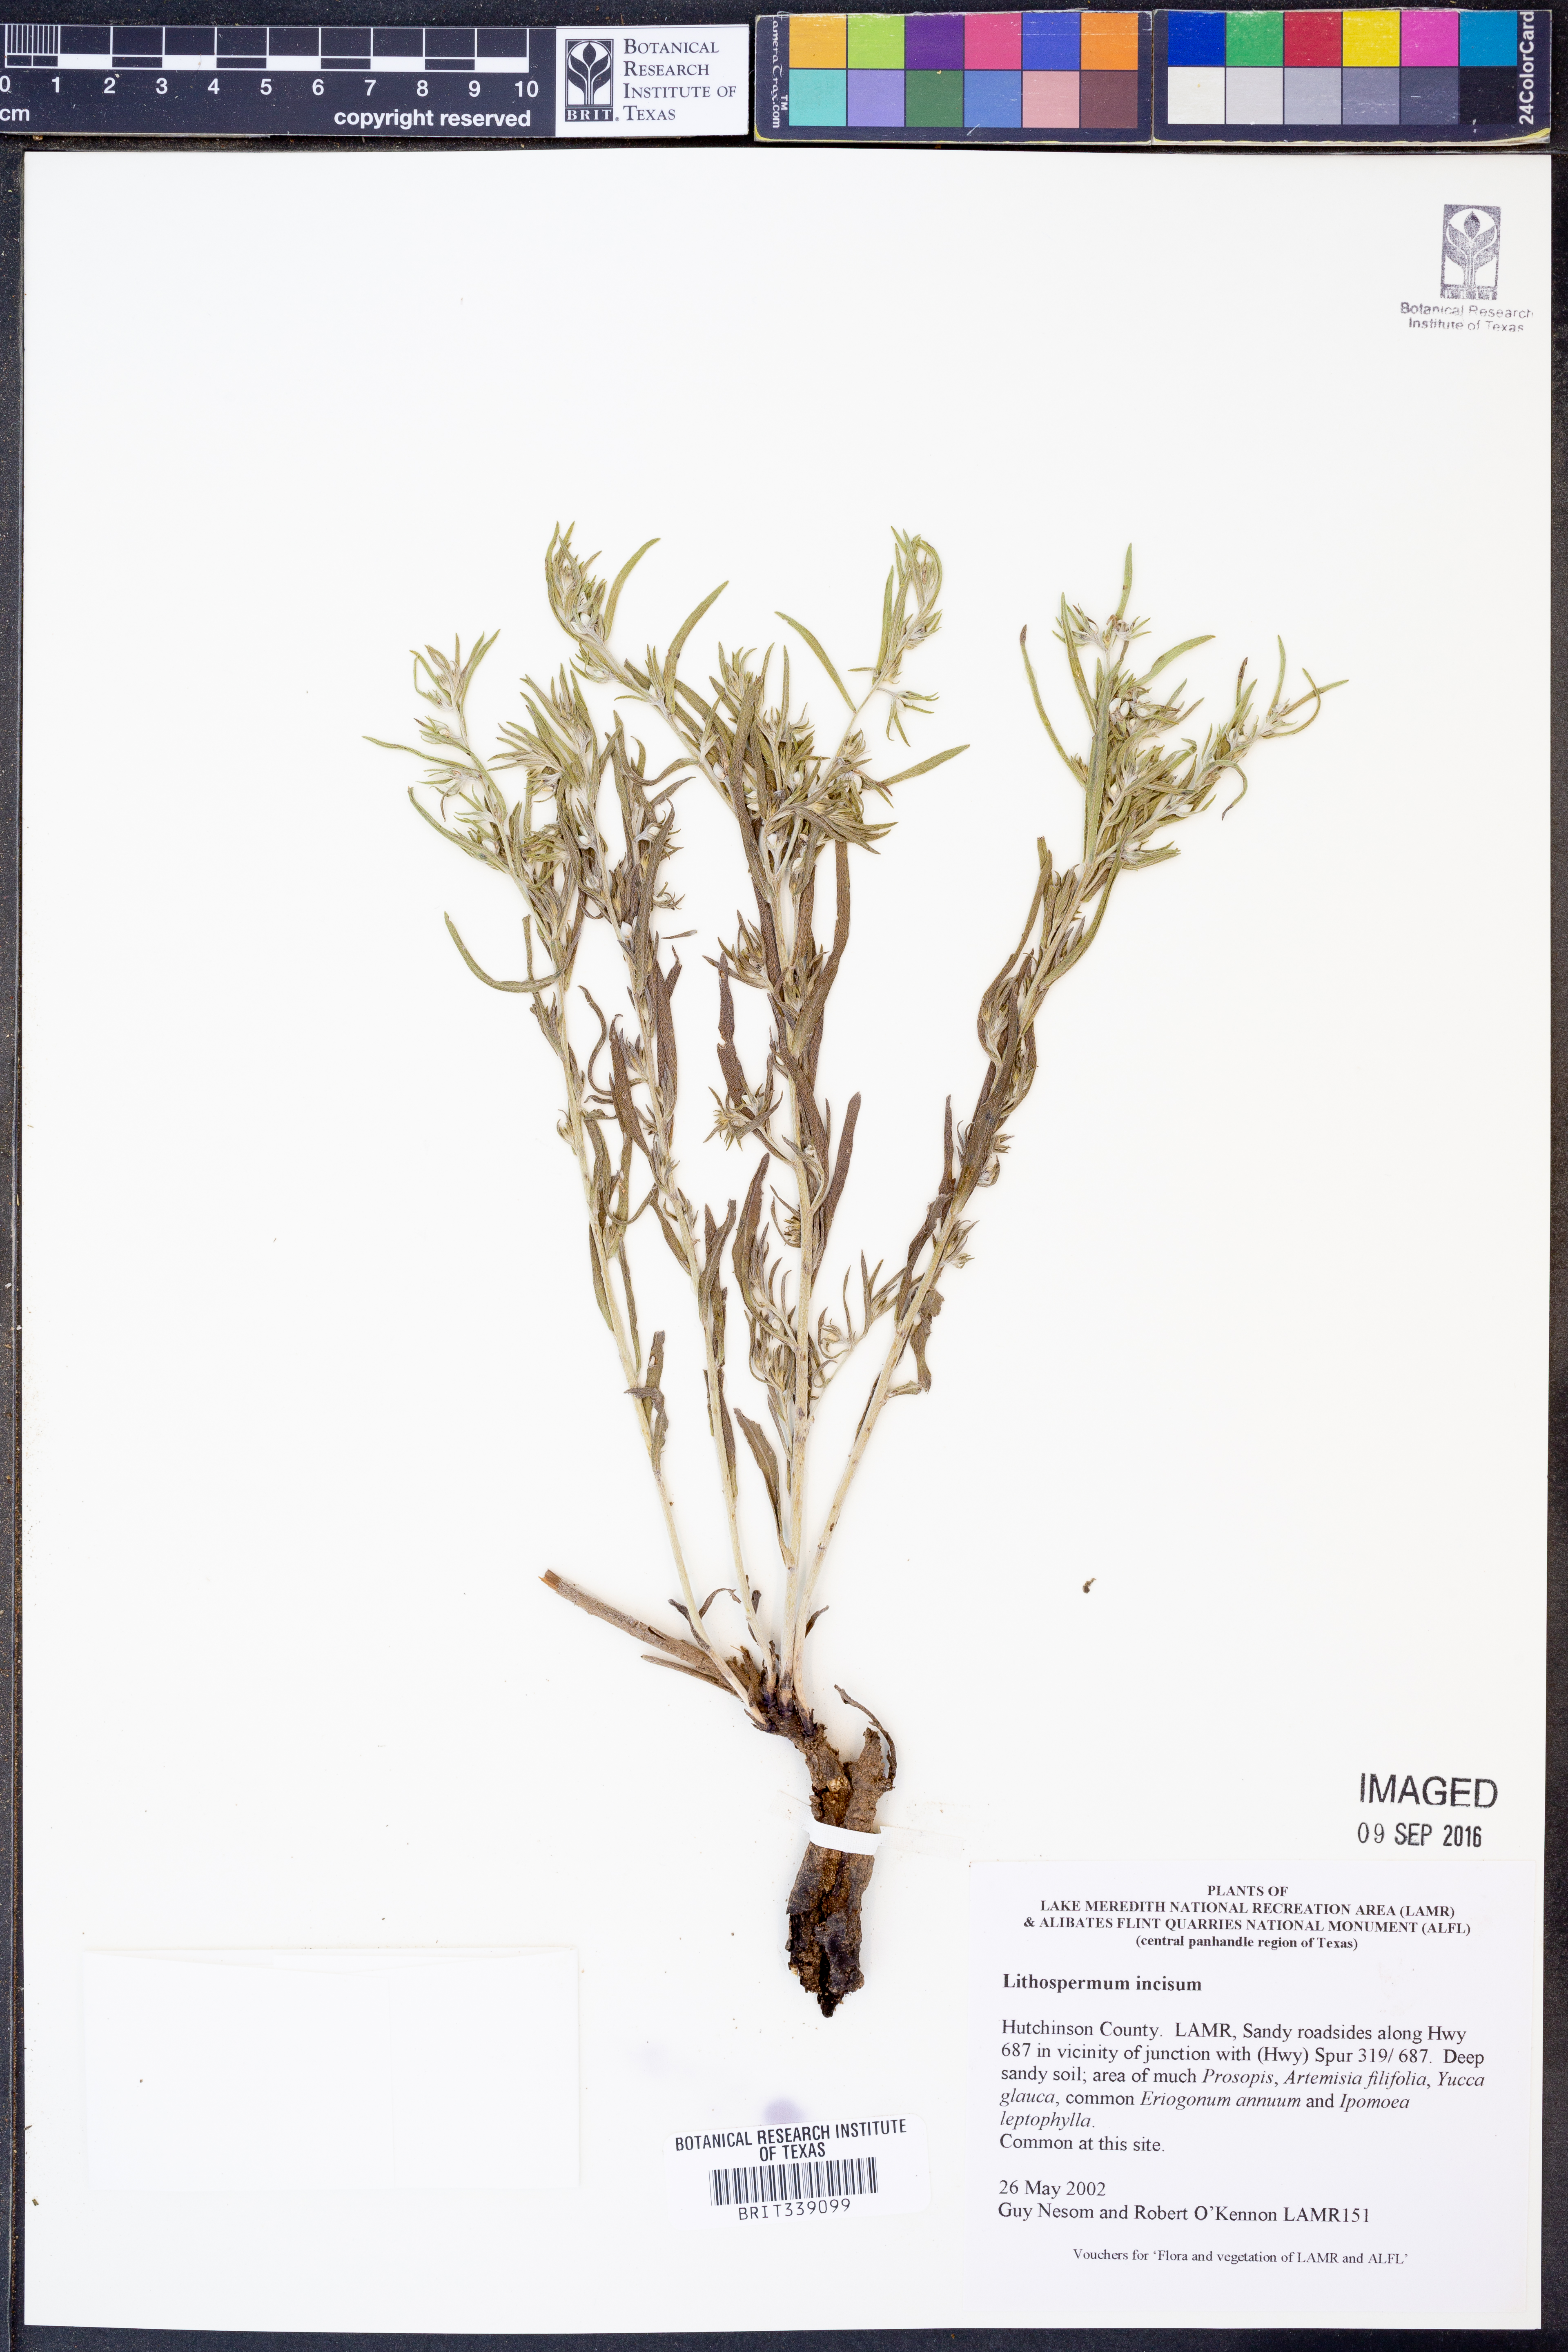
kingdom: Plantae
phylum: Tracheophyta
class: Magnoliopsida
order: Boraginales
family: Boraginaceae
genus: Lithospermum
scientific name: Lithospermum incisum
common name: Fringed gromwell
